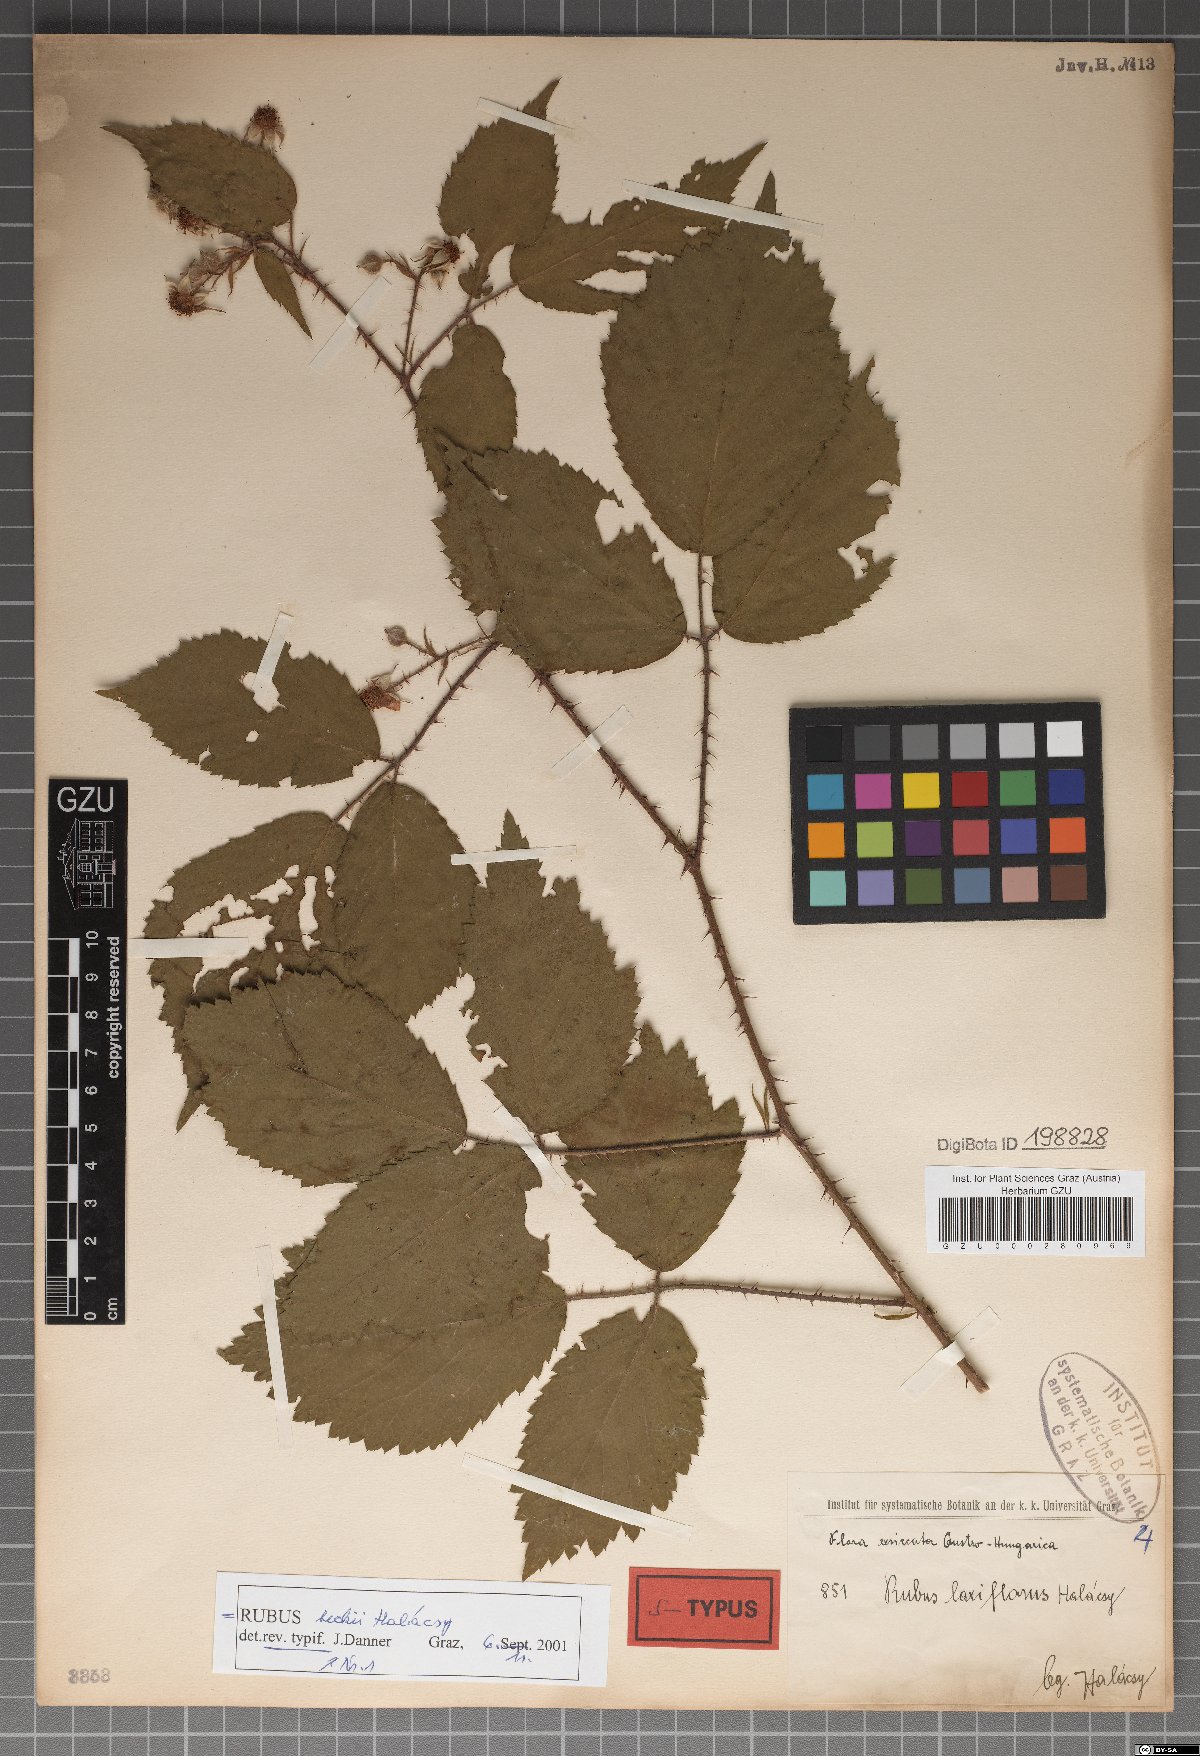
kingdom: Plantae
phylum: Tracheophyta
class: Magnoliopsida
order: Rosales
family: Rosaceae
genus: Rubus
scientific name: Rubus laxiflorus
